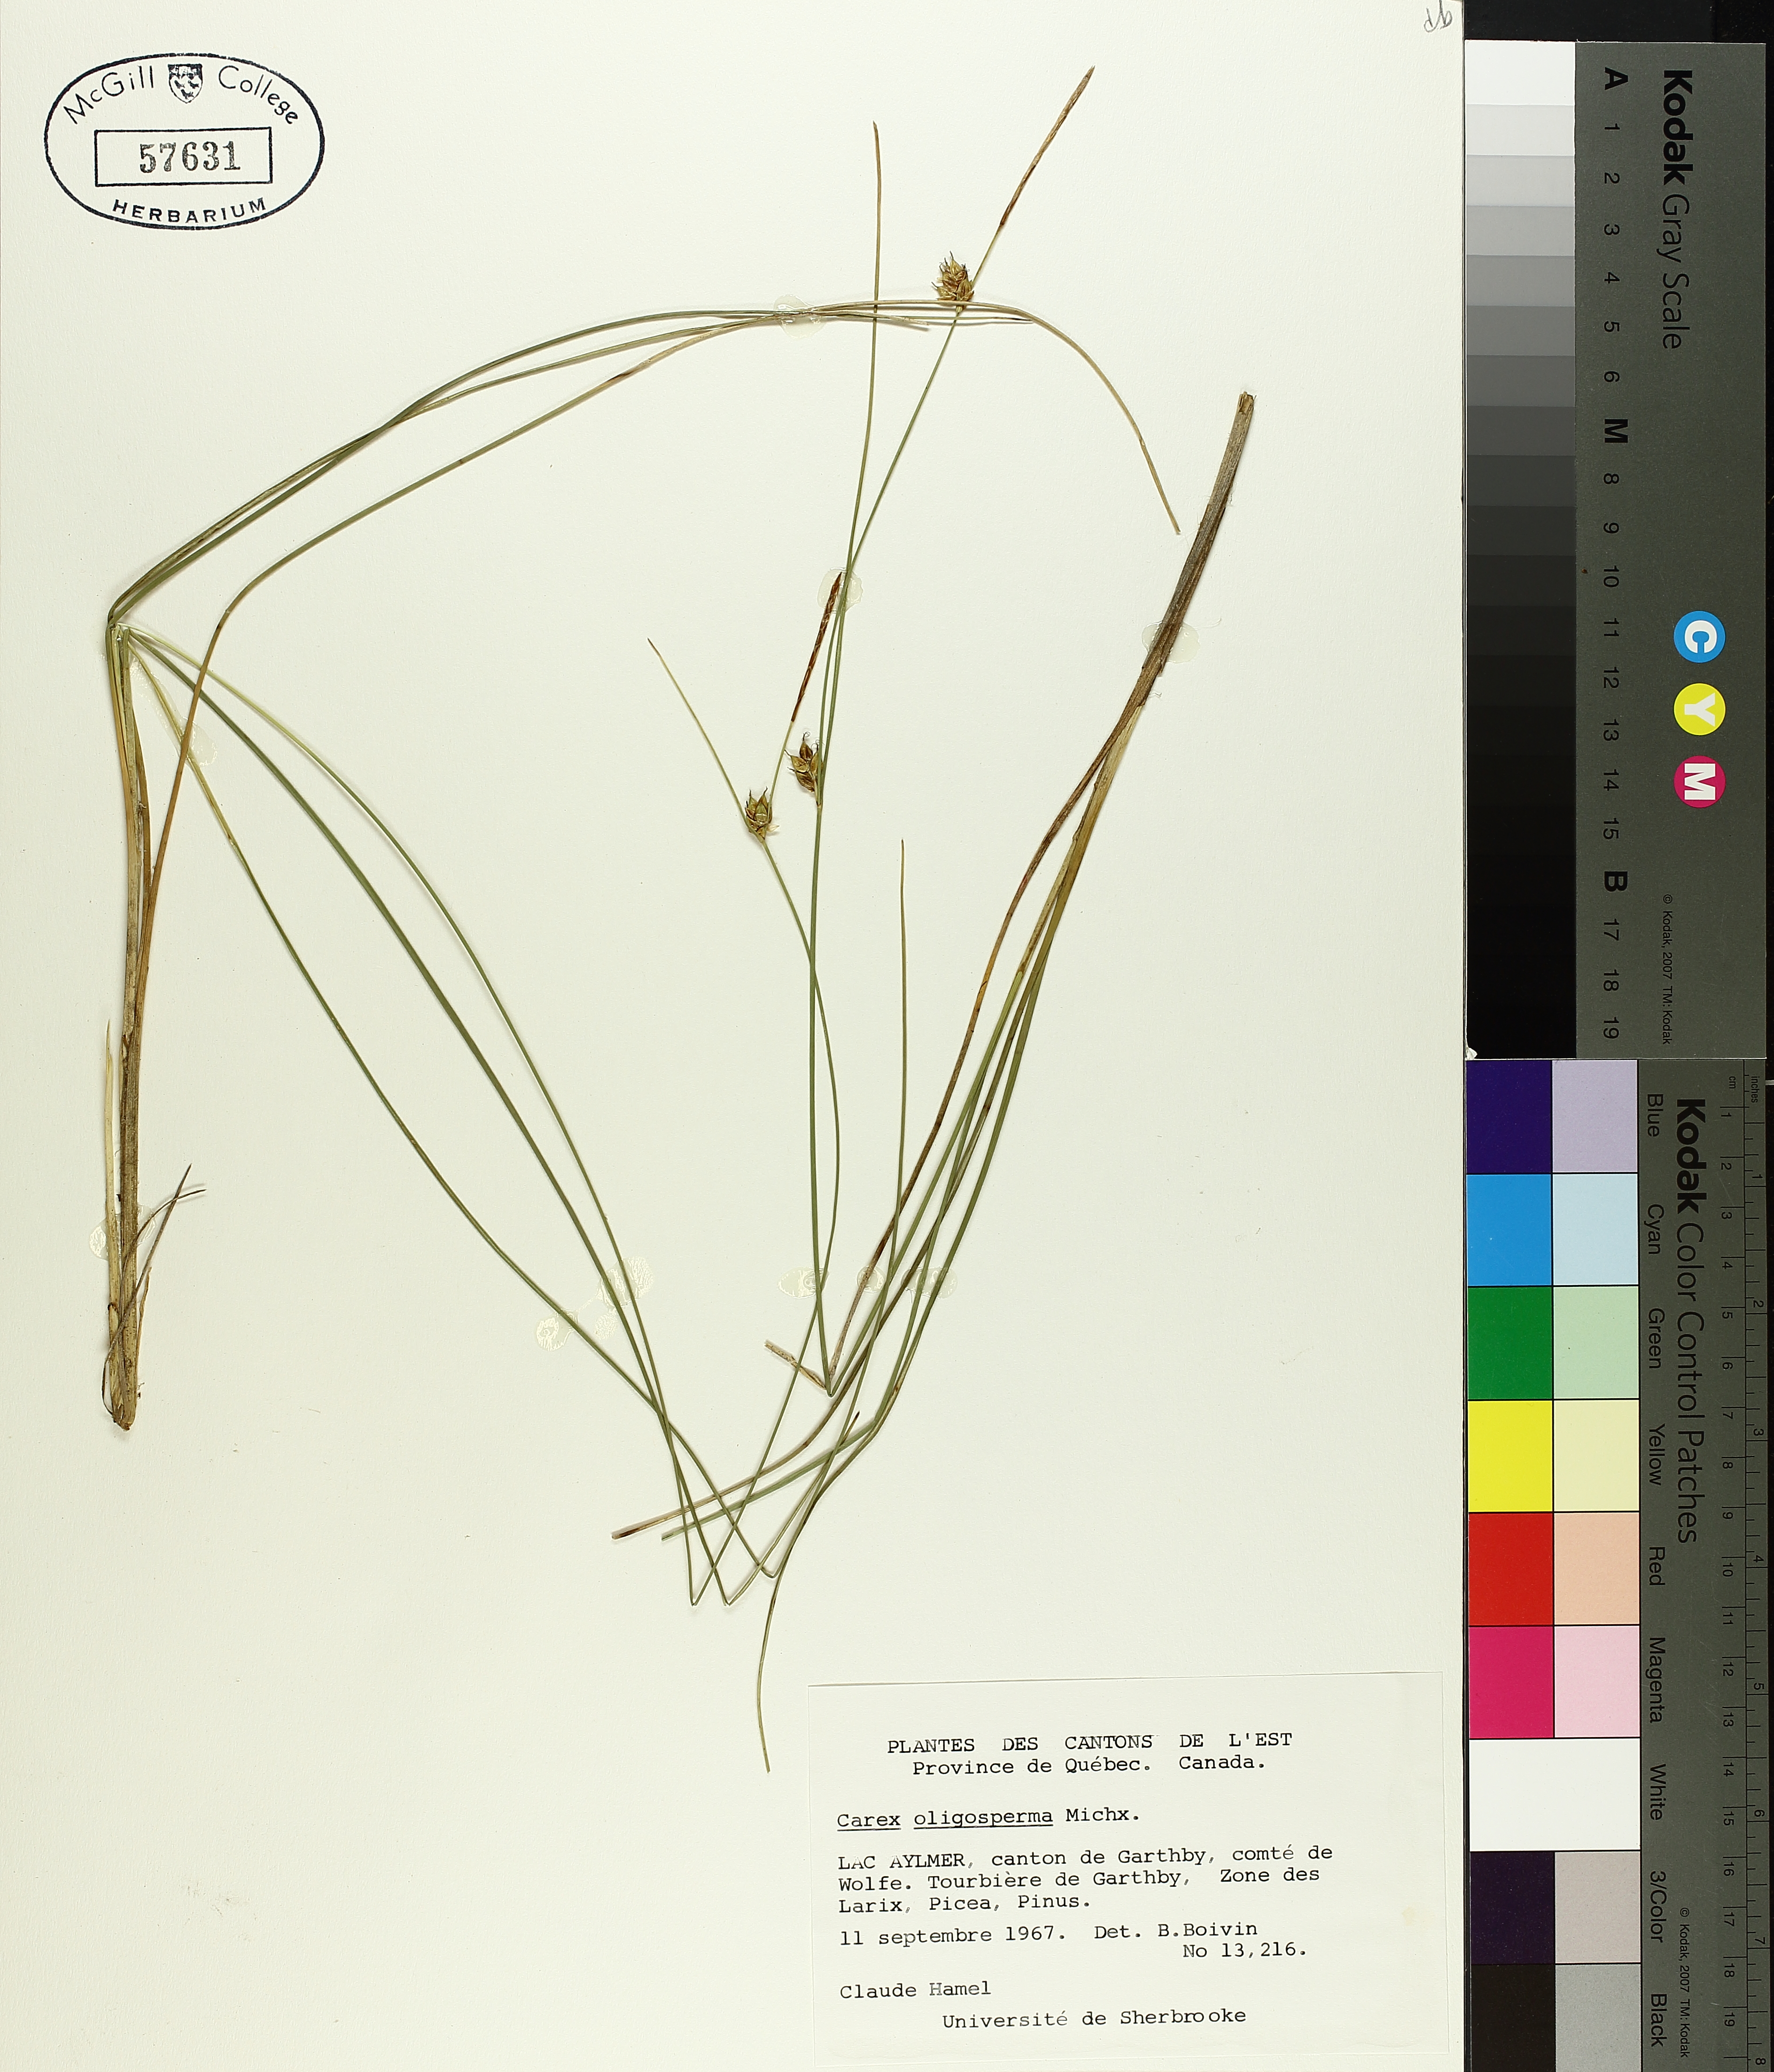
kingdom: Plantae
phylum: Tracheophyta
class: Liliopsida
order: Poales
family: Cyperaceae
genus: Carex
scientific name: Carex oligosperma
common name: Few-seed sedge
